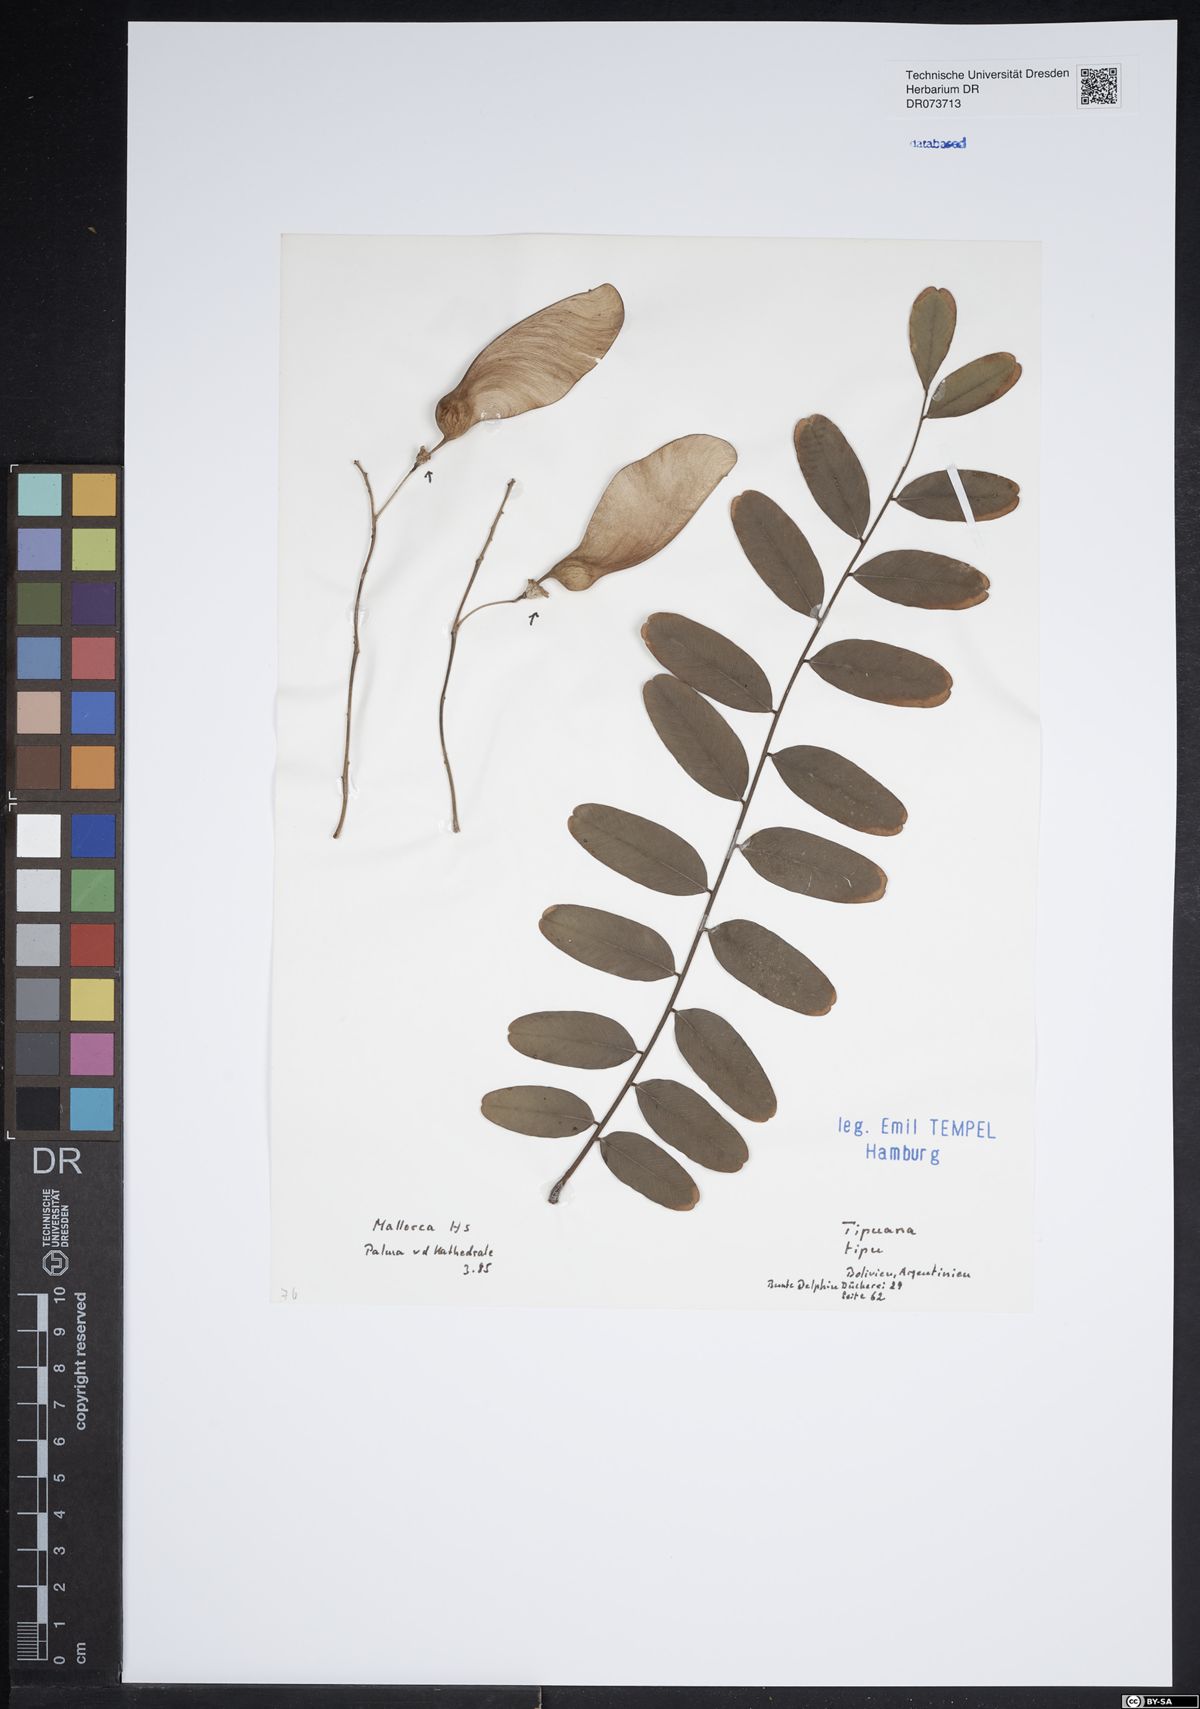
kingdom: Plantae
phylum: Tracheophyta
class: Magnoliopsida
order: Fabales
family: Fabaceae
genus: Tipuana
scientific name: Tipuana tipu
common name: Tiputree
